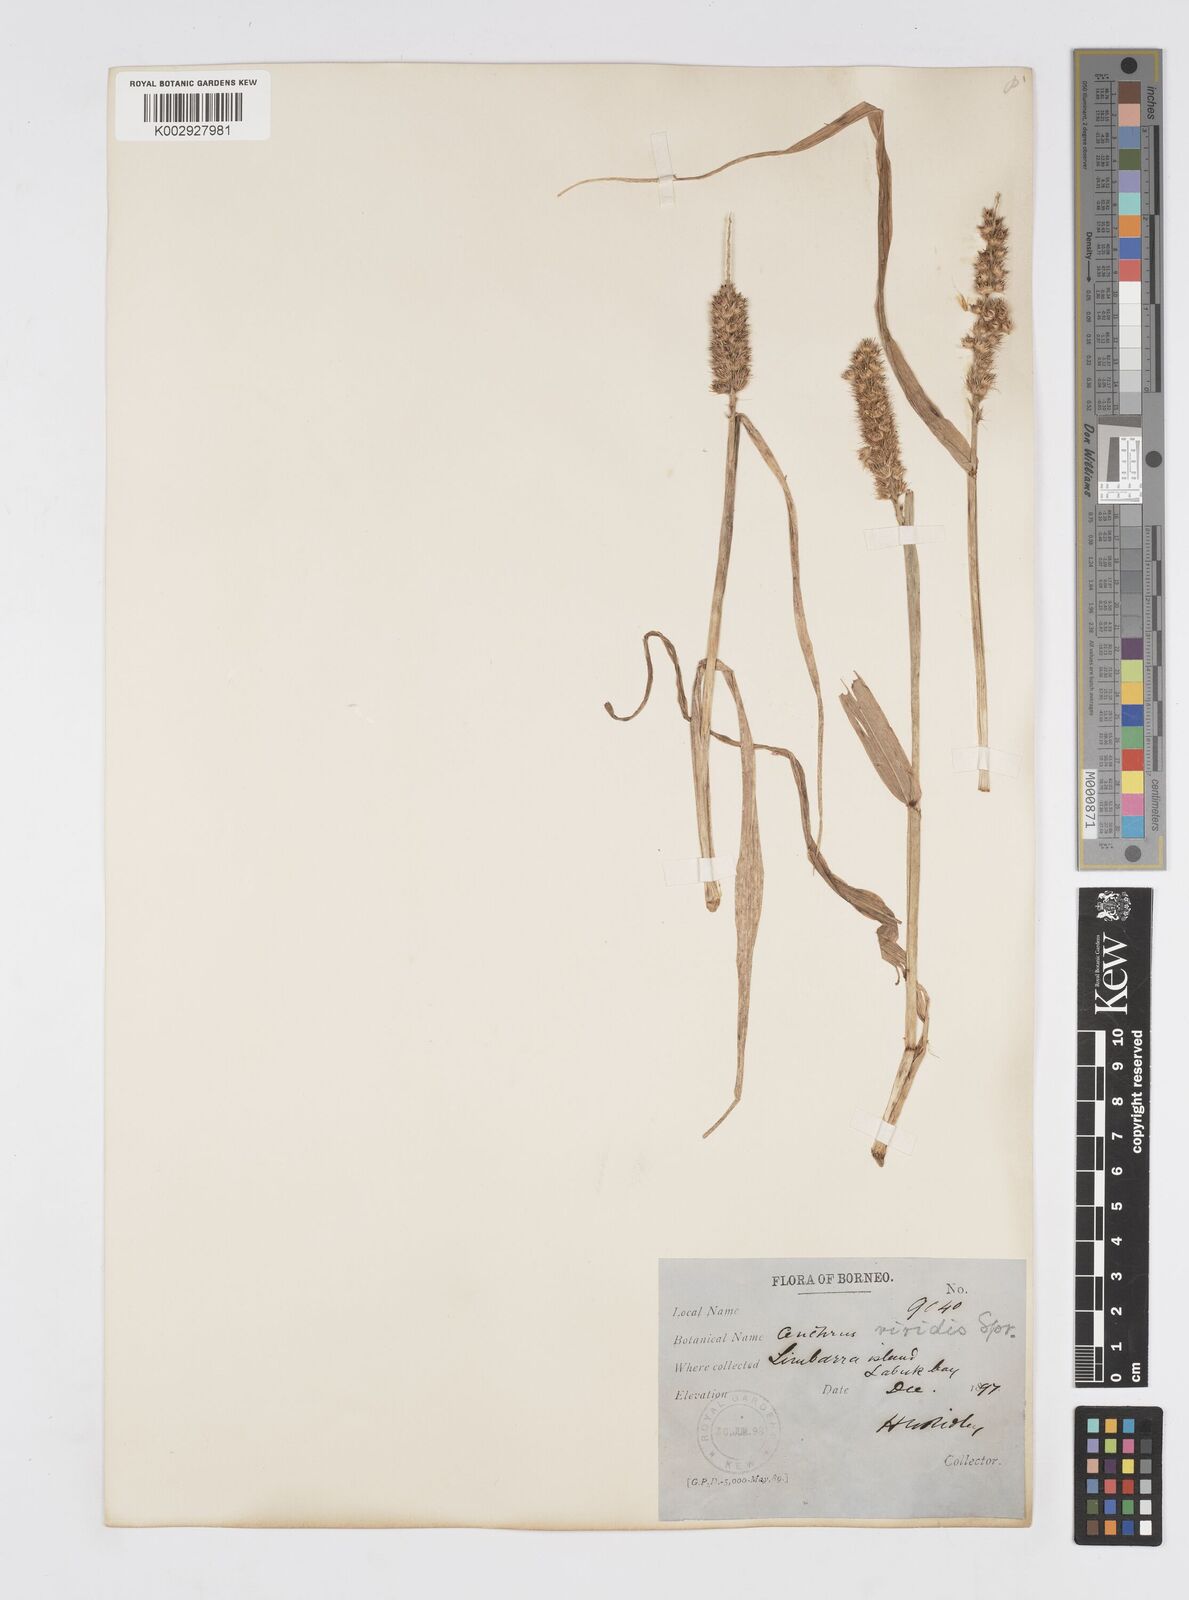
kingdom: Plantae
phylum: Tracheophyta
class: Liliopsida
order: Poales
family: Poaceae
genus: Cenchrus
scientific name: Cenchrus brownii
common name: Slim-bristle sandbur
